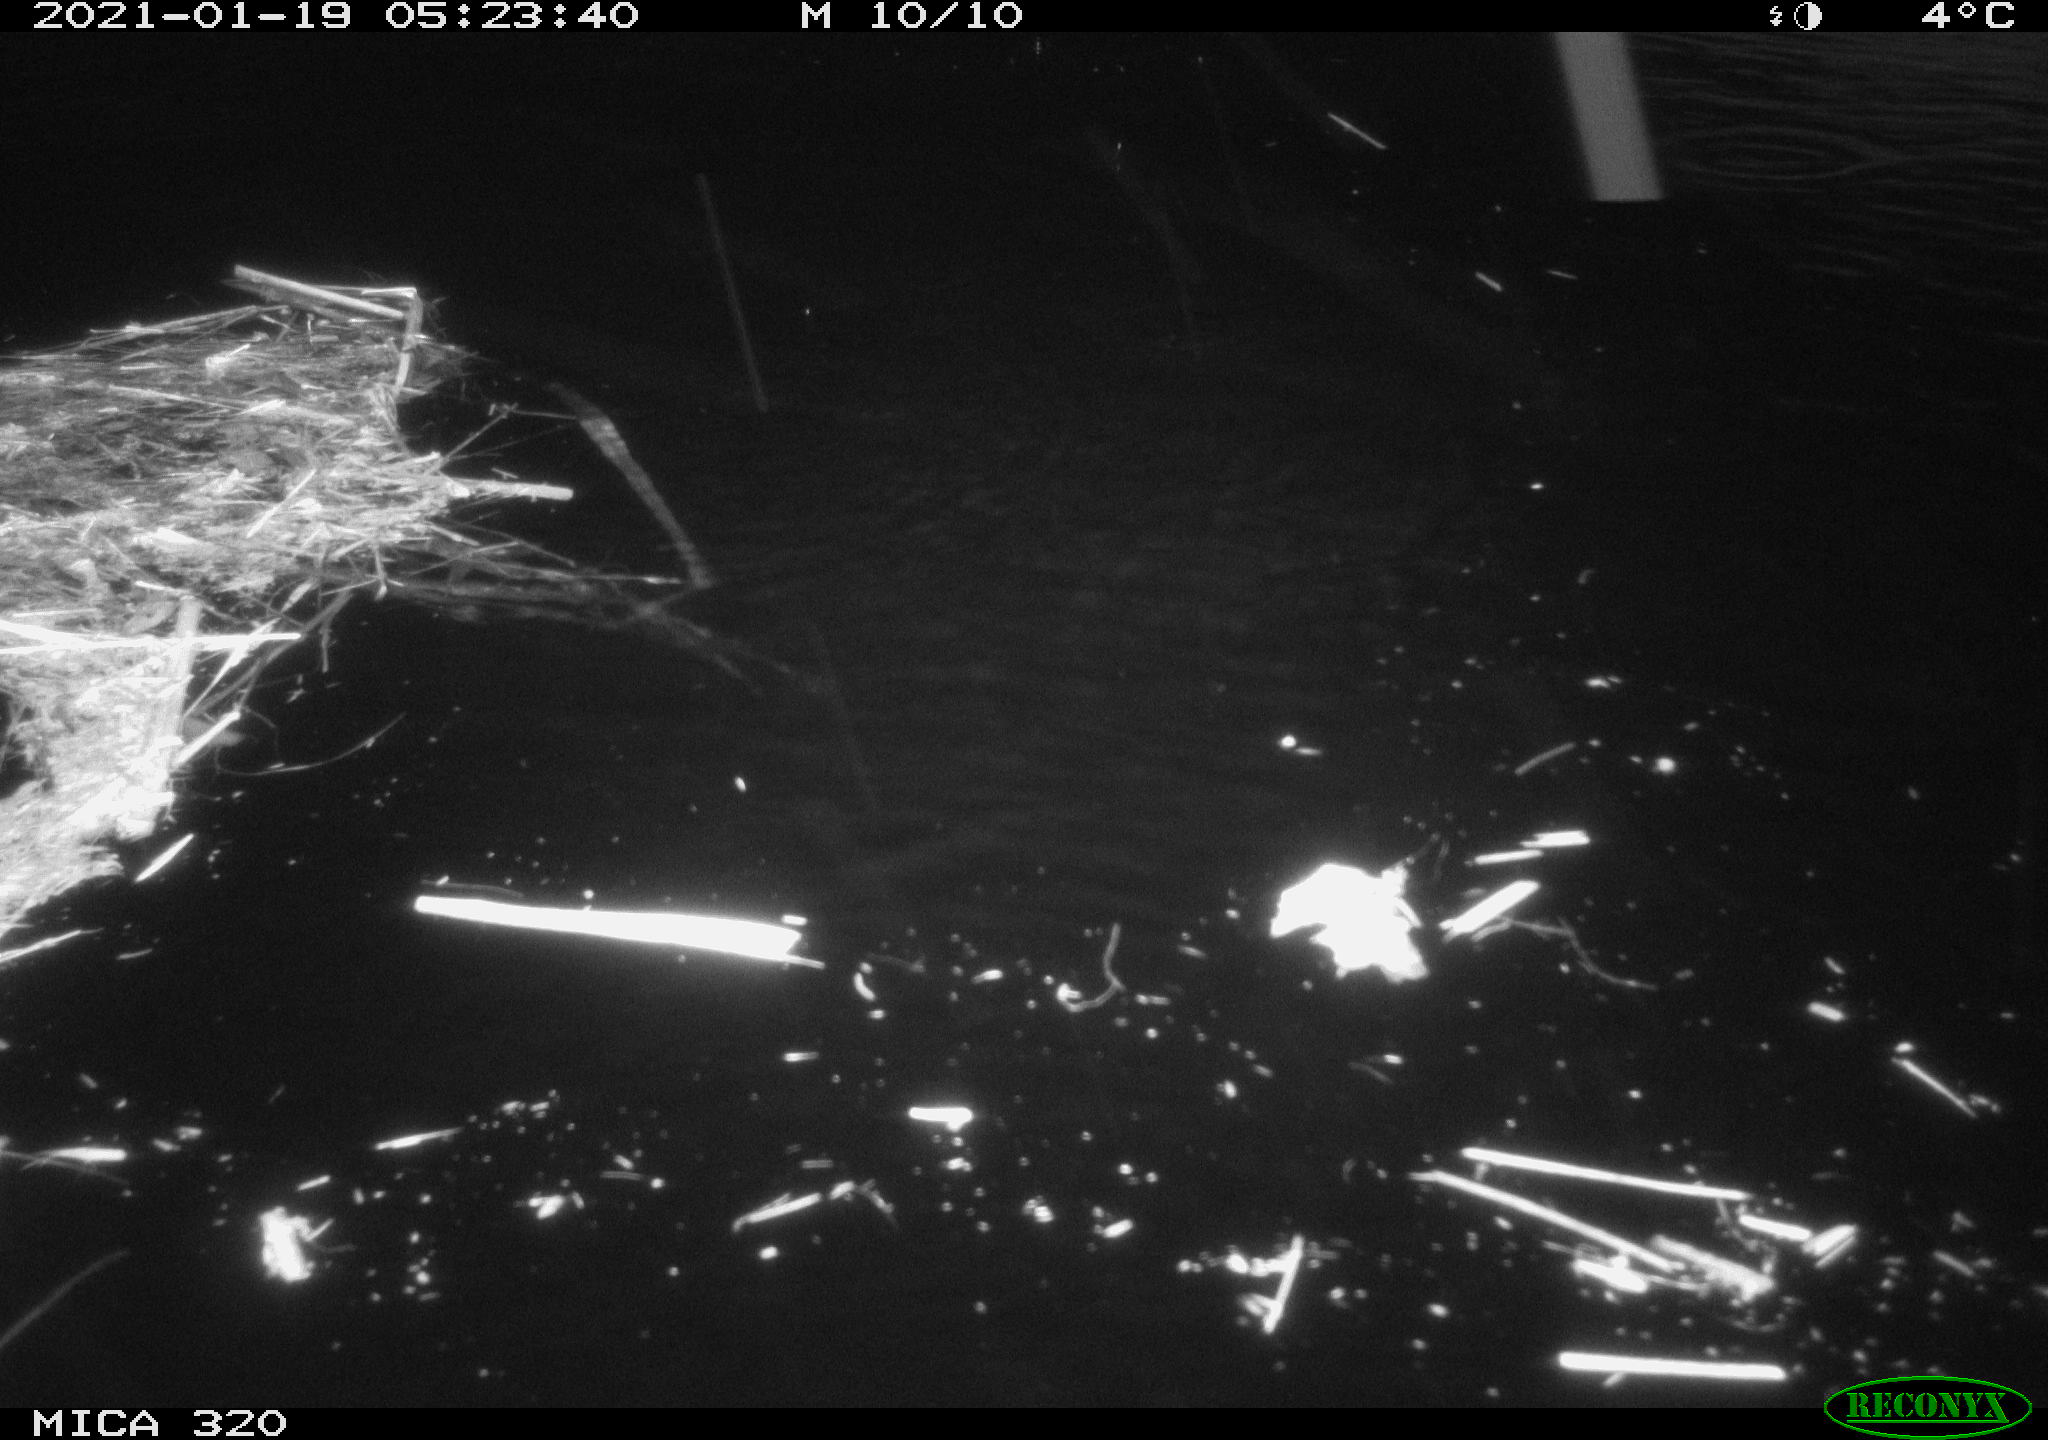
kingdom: Animalia
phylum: Chordata
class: Aves
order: Gruiformes
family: Rallidae
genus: Gallinula
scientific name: Gallinula chloropus
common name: Common moorhen
